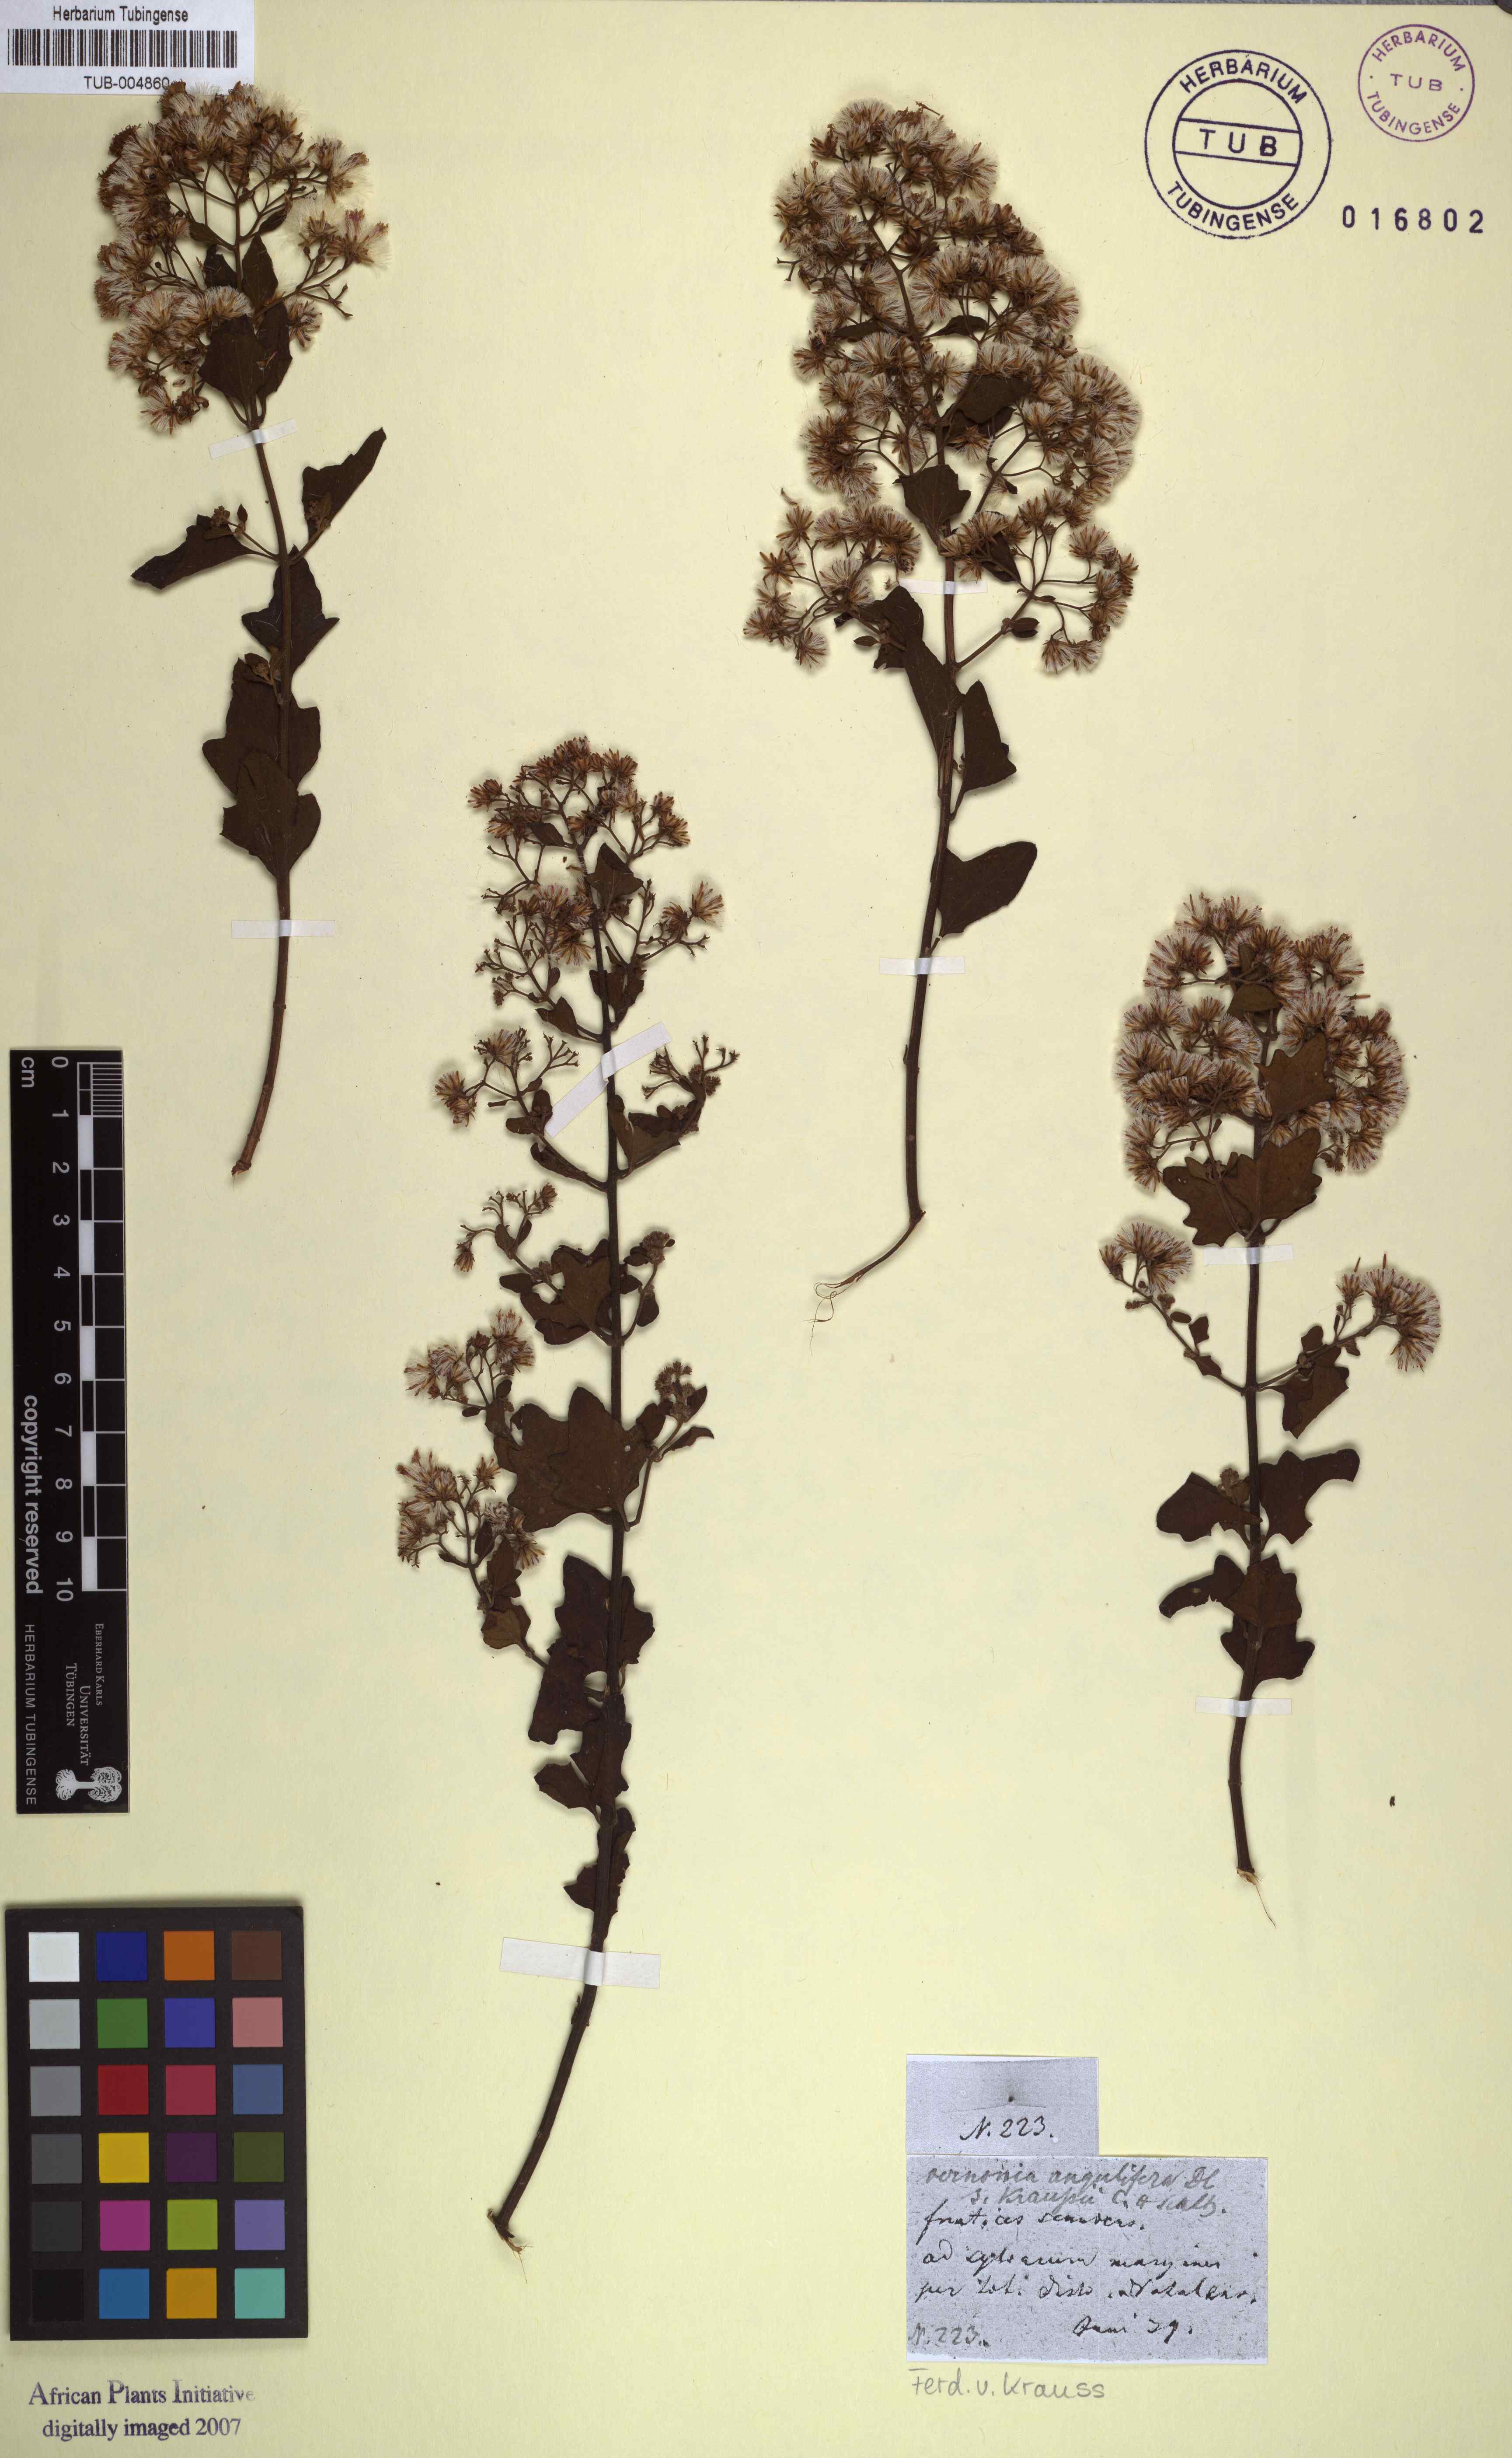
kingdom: Plantae
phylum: Tracheophyta
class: Magnoliopsida
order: Asterales
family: Asteraceae
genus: Vernonia
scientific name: Vernonia
